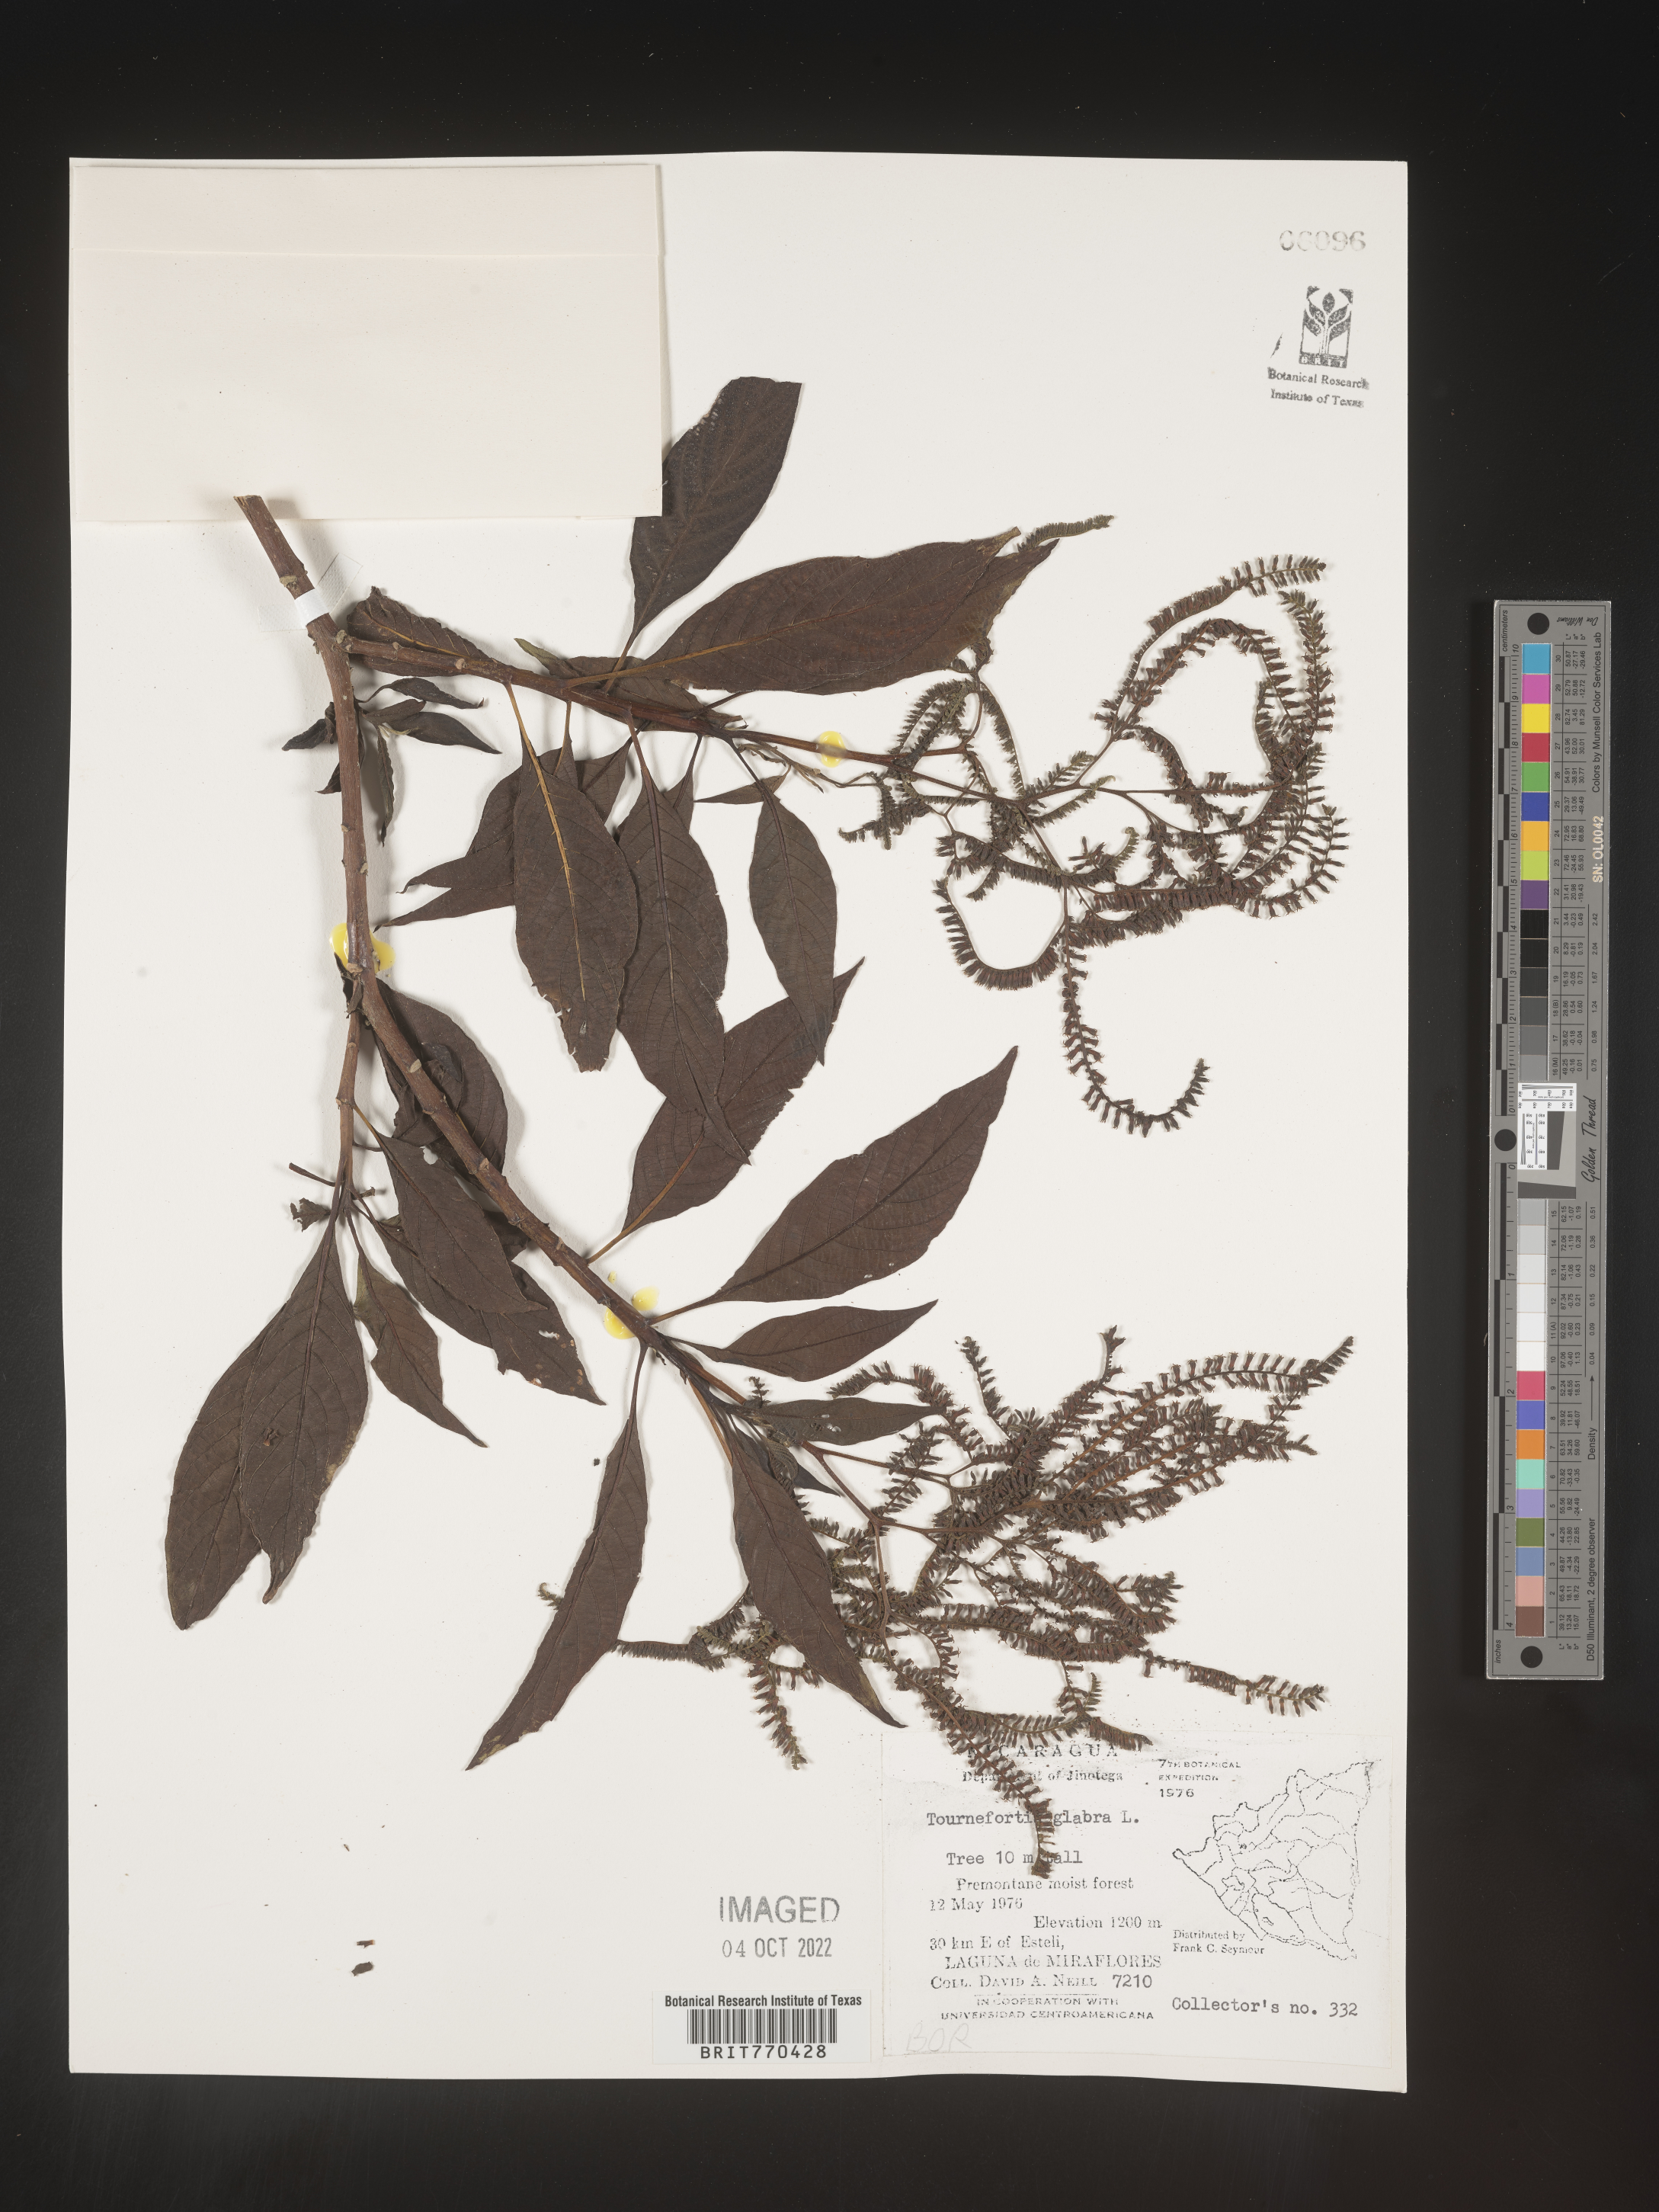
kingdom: Plantae
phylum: Tracheophyta
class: Magnoliopsida
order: Boraginales
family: Heliotropiaceae
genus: Tournefortia
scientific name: Tournefortia
